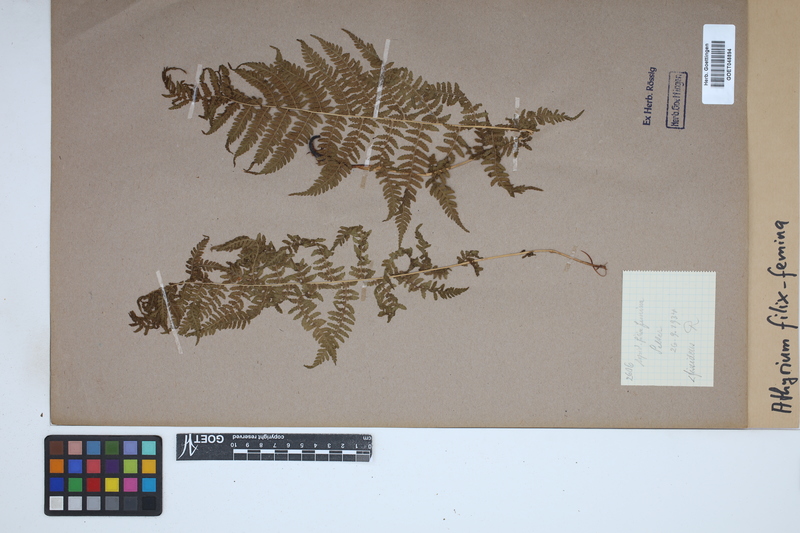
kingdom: Plantae
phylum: Tracheophyta
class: Polypodiopsida
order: Polypodiales
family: Athyriaceae
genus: Athyrium
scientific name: Athyrium filix-femina
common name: Lady fern
